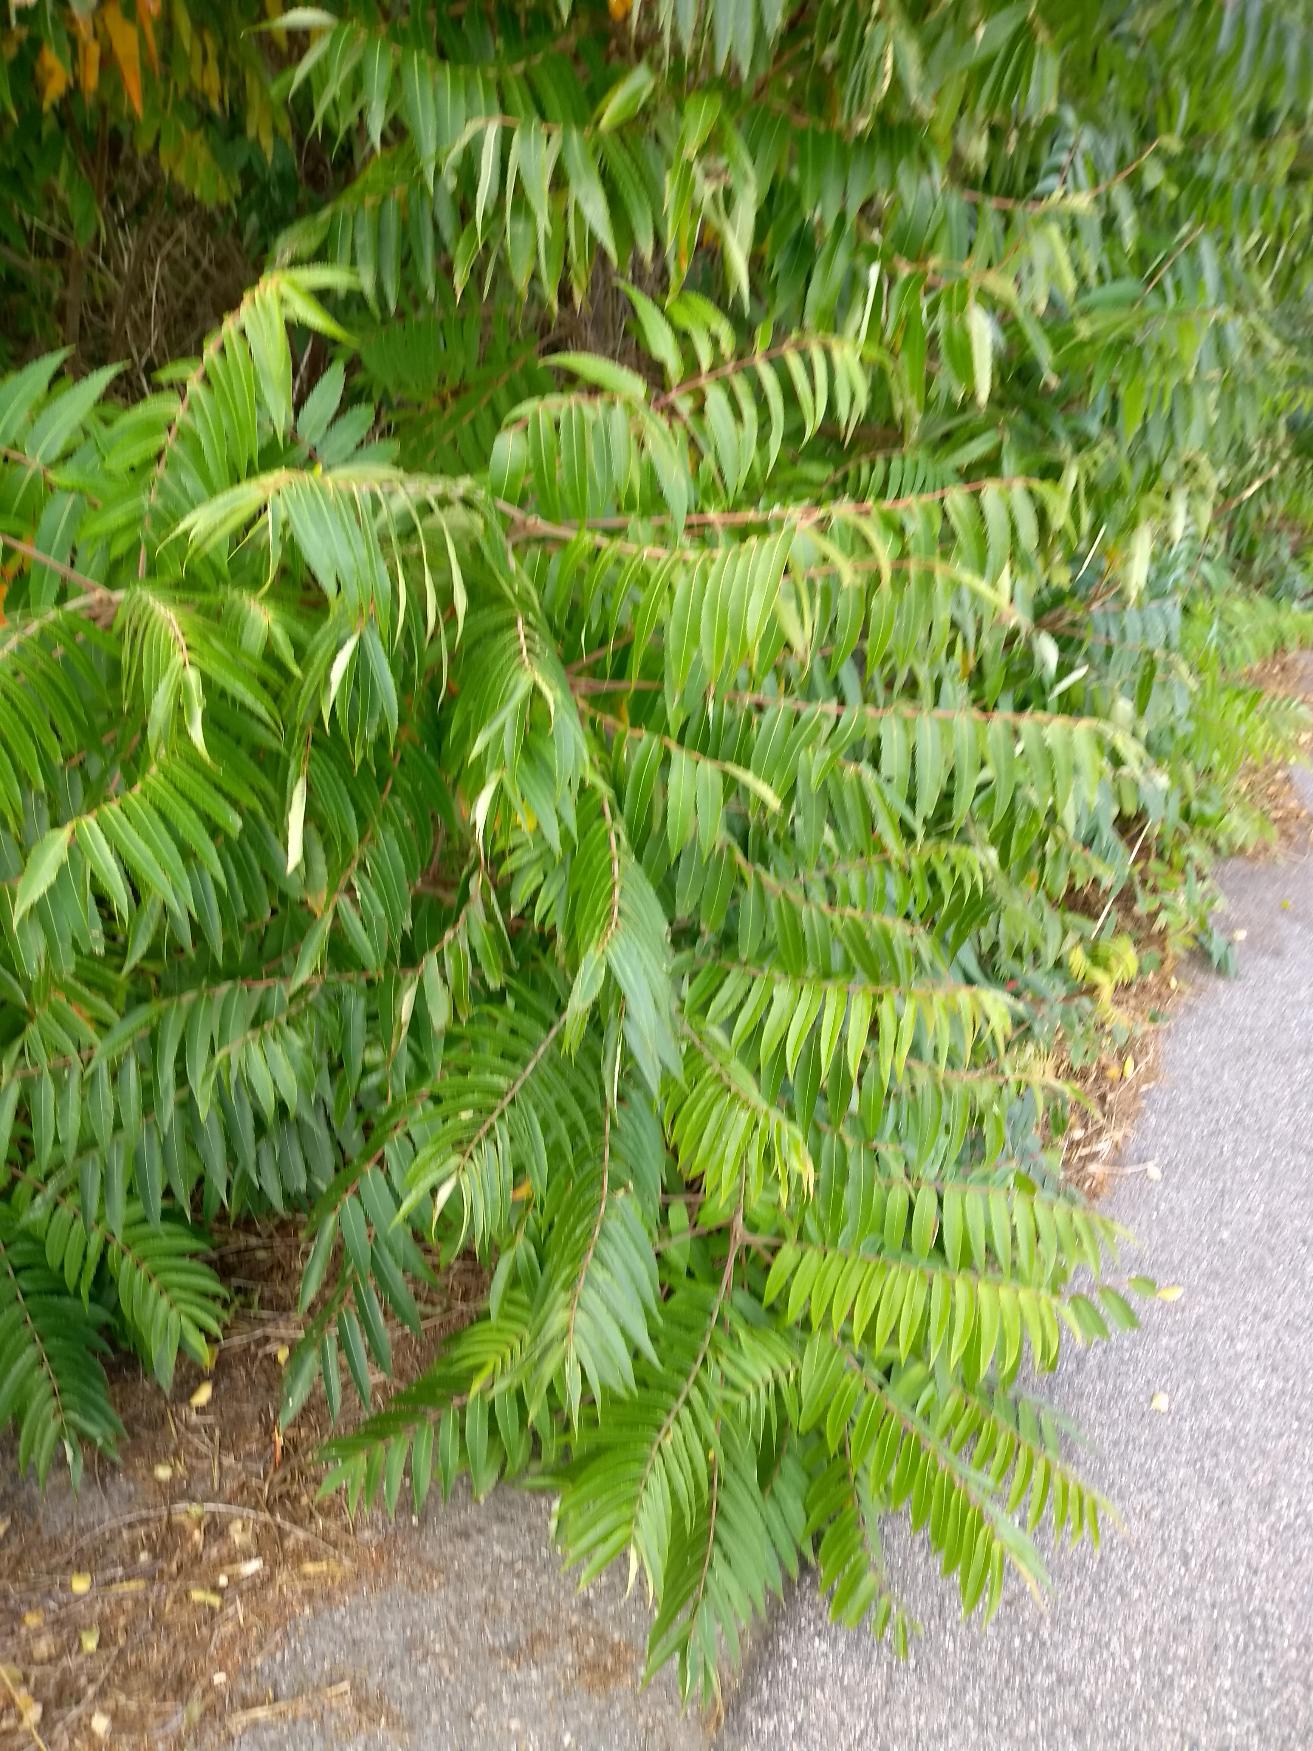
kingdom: Plantae
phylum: Tracheophyta
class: Magnoliopsida
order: Sapindales
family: Anacardiaceae
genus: Rhus
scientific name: Rhus typhina
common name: Hjortetaktræ
